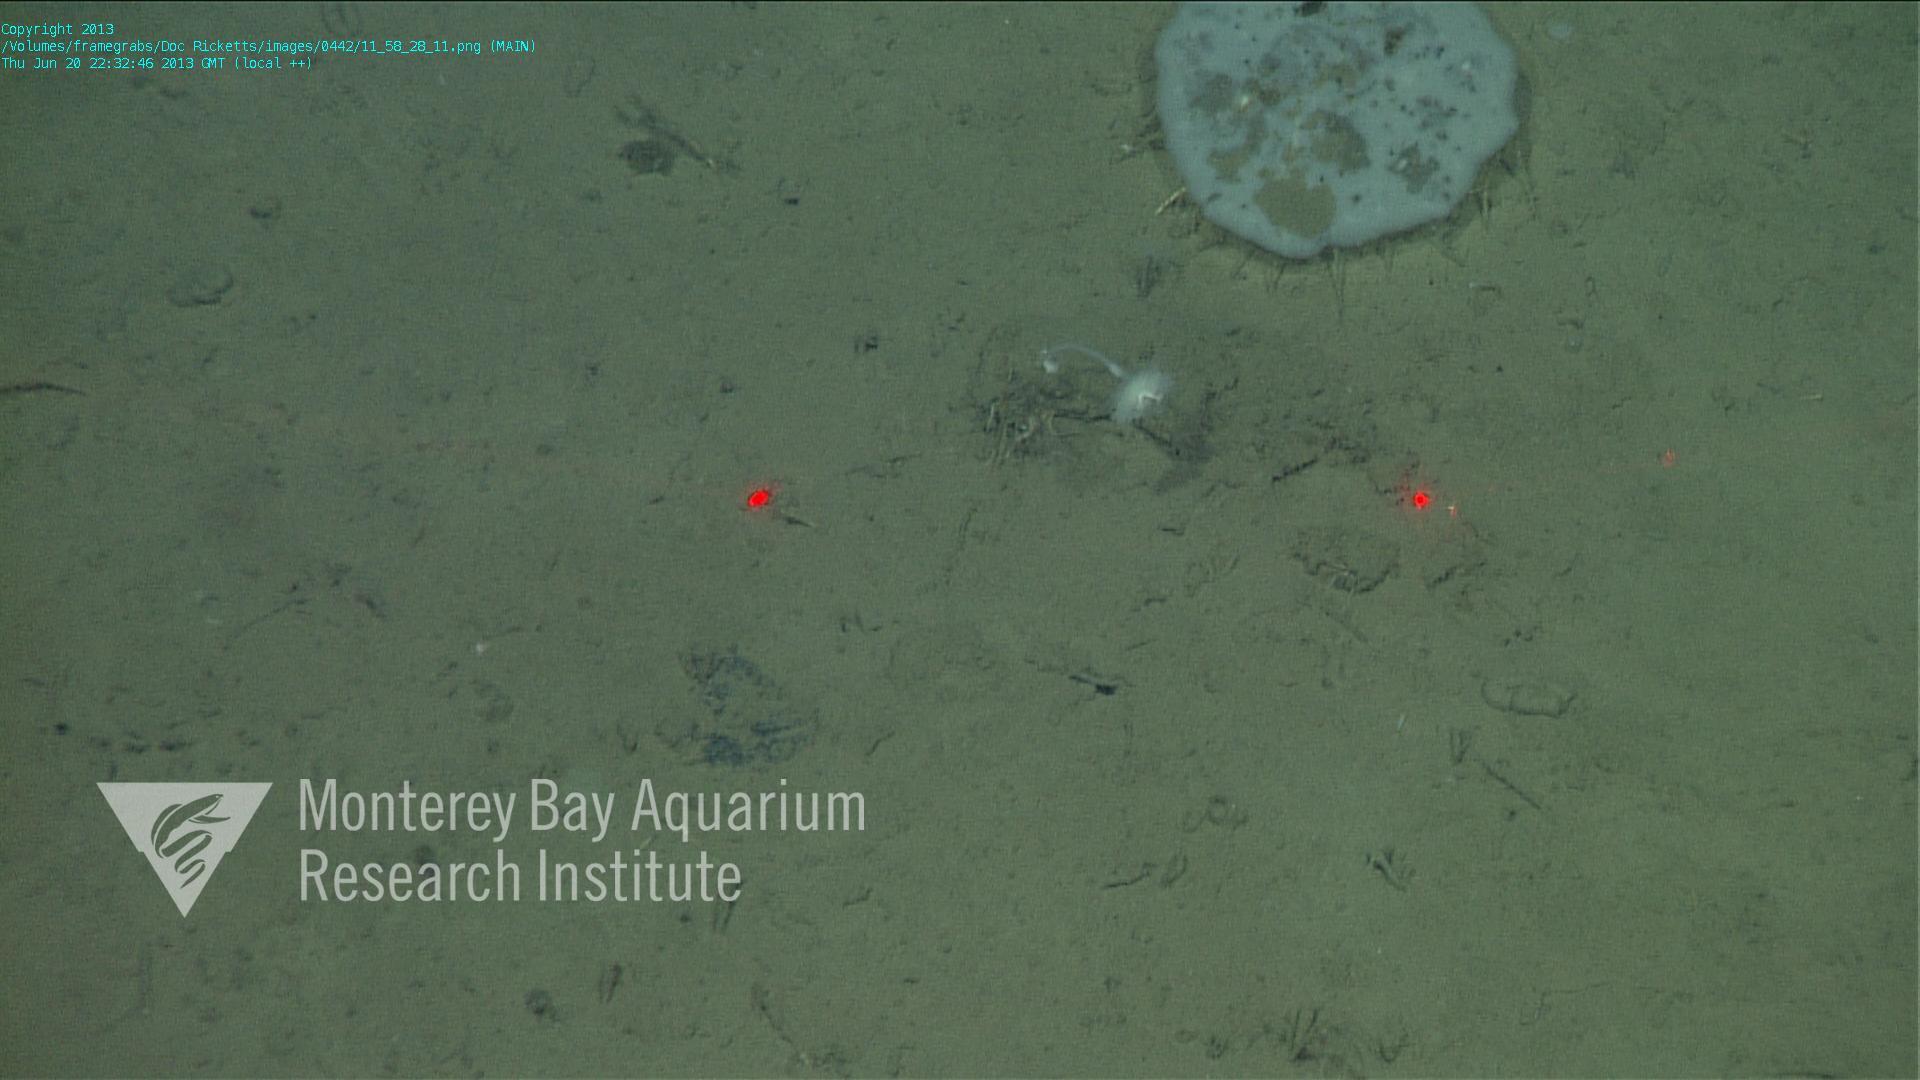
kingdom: Animalia
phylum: Porifera
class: Demospongiae
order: Poecilosclerida
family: Cladorhizidae
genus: Cladorhiza
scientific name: Cladorhiza
